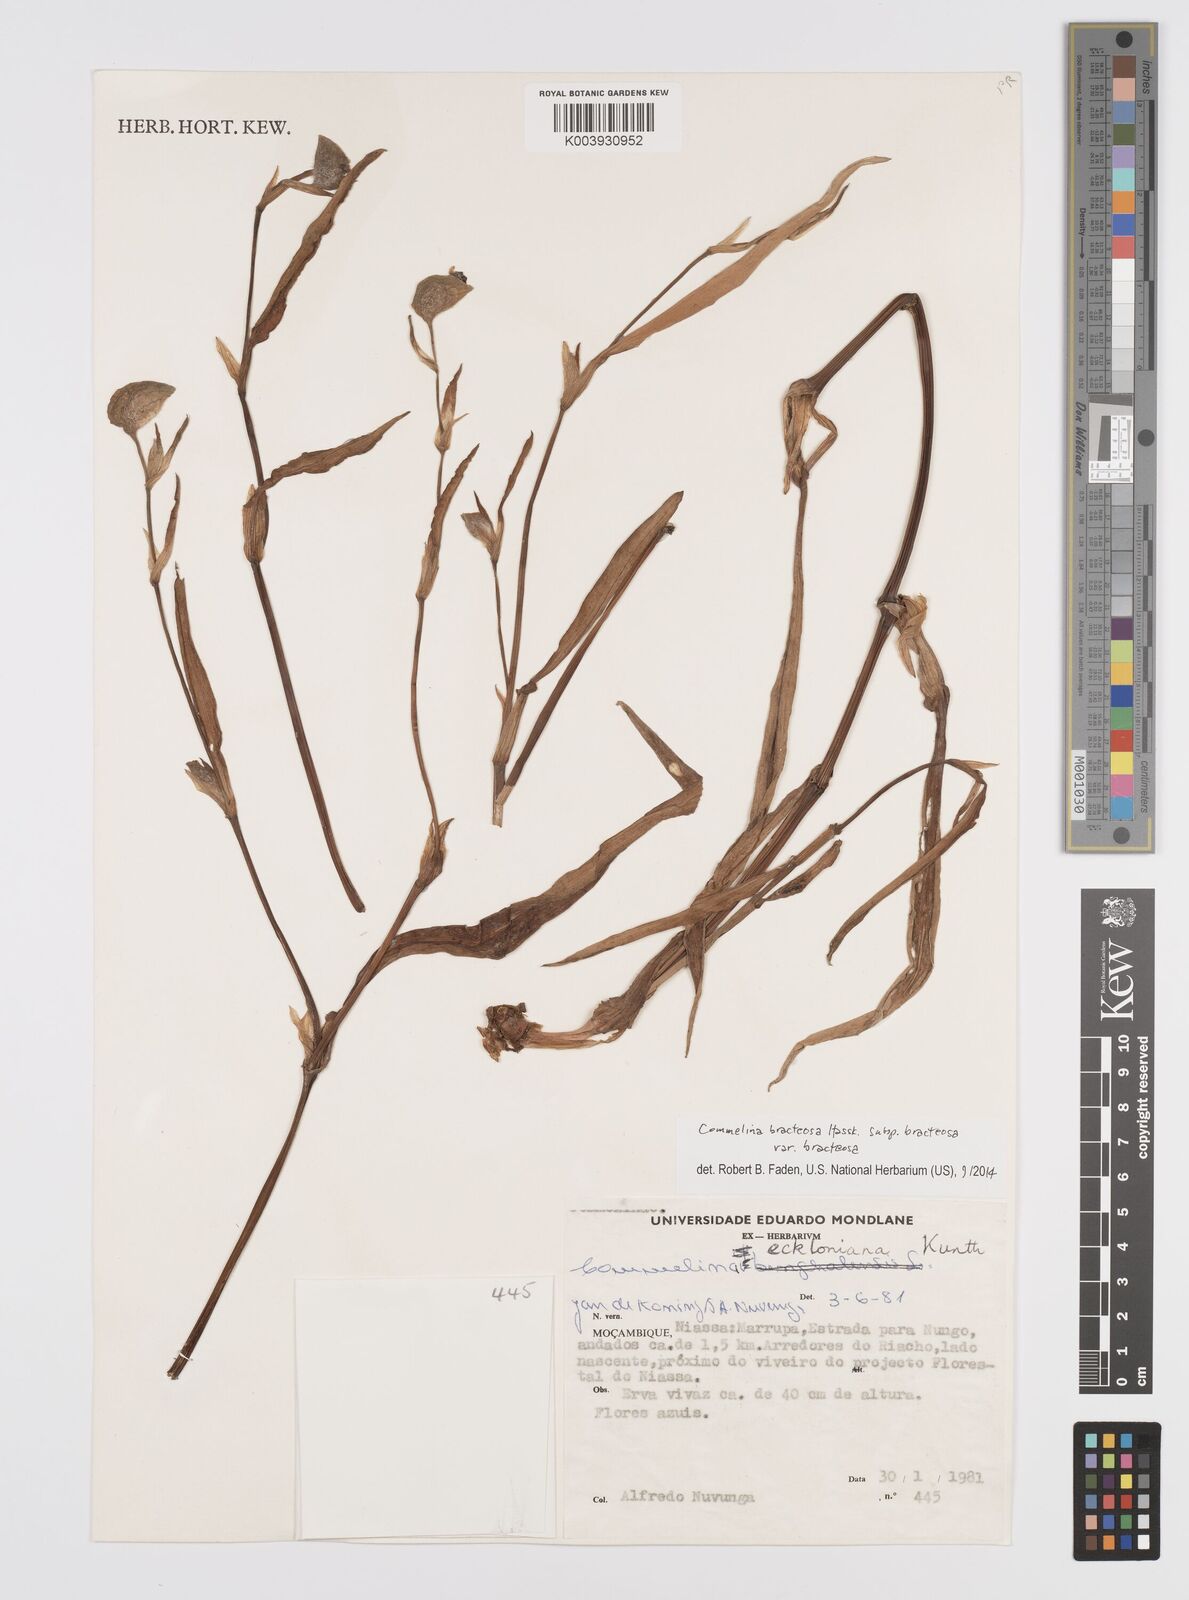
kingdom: Plantae
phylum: Tracheophyta
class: Liliopsida
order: Commelinales
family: Commelinaceae
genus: Commelina
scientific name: Commelina bracteosa
